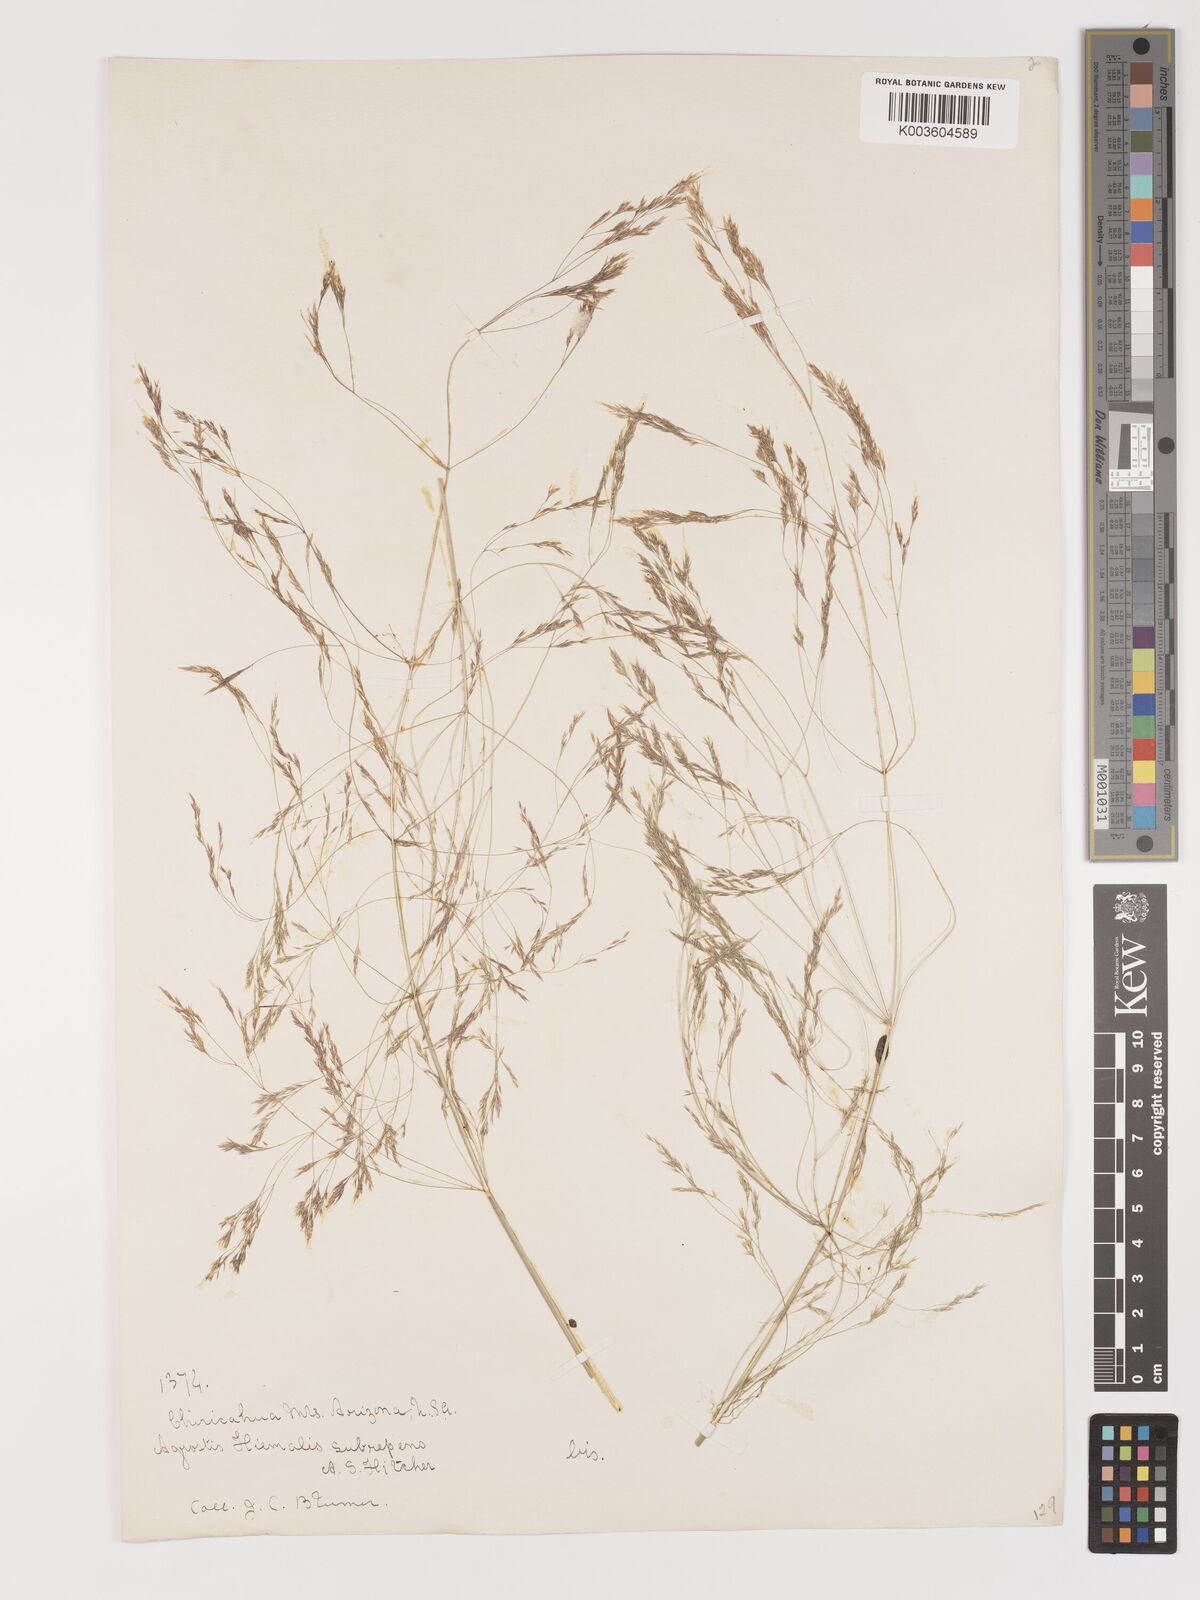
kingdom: Plantae
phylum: Tracheophyta
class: Liliopsida
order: Poales
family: Poaceae
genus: Agrostis
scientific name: Agrostis hyemalis
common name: Small bent
